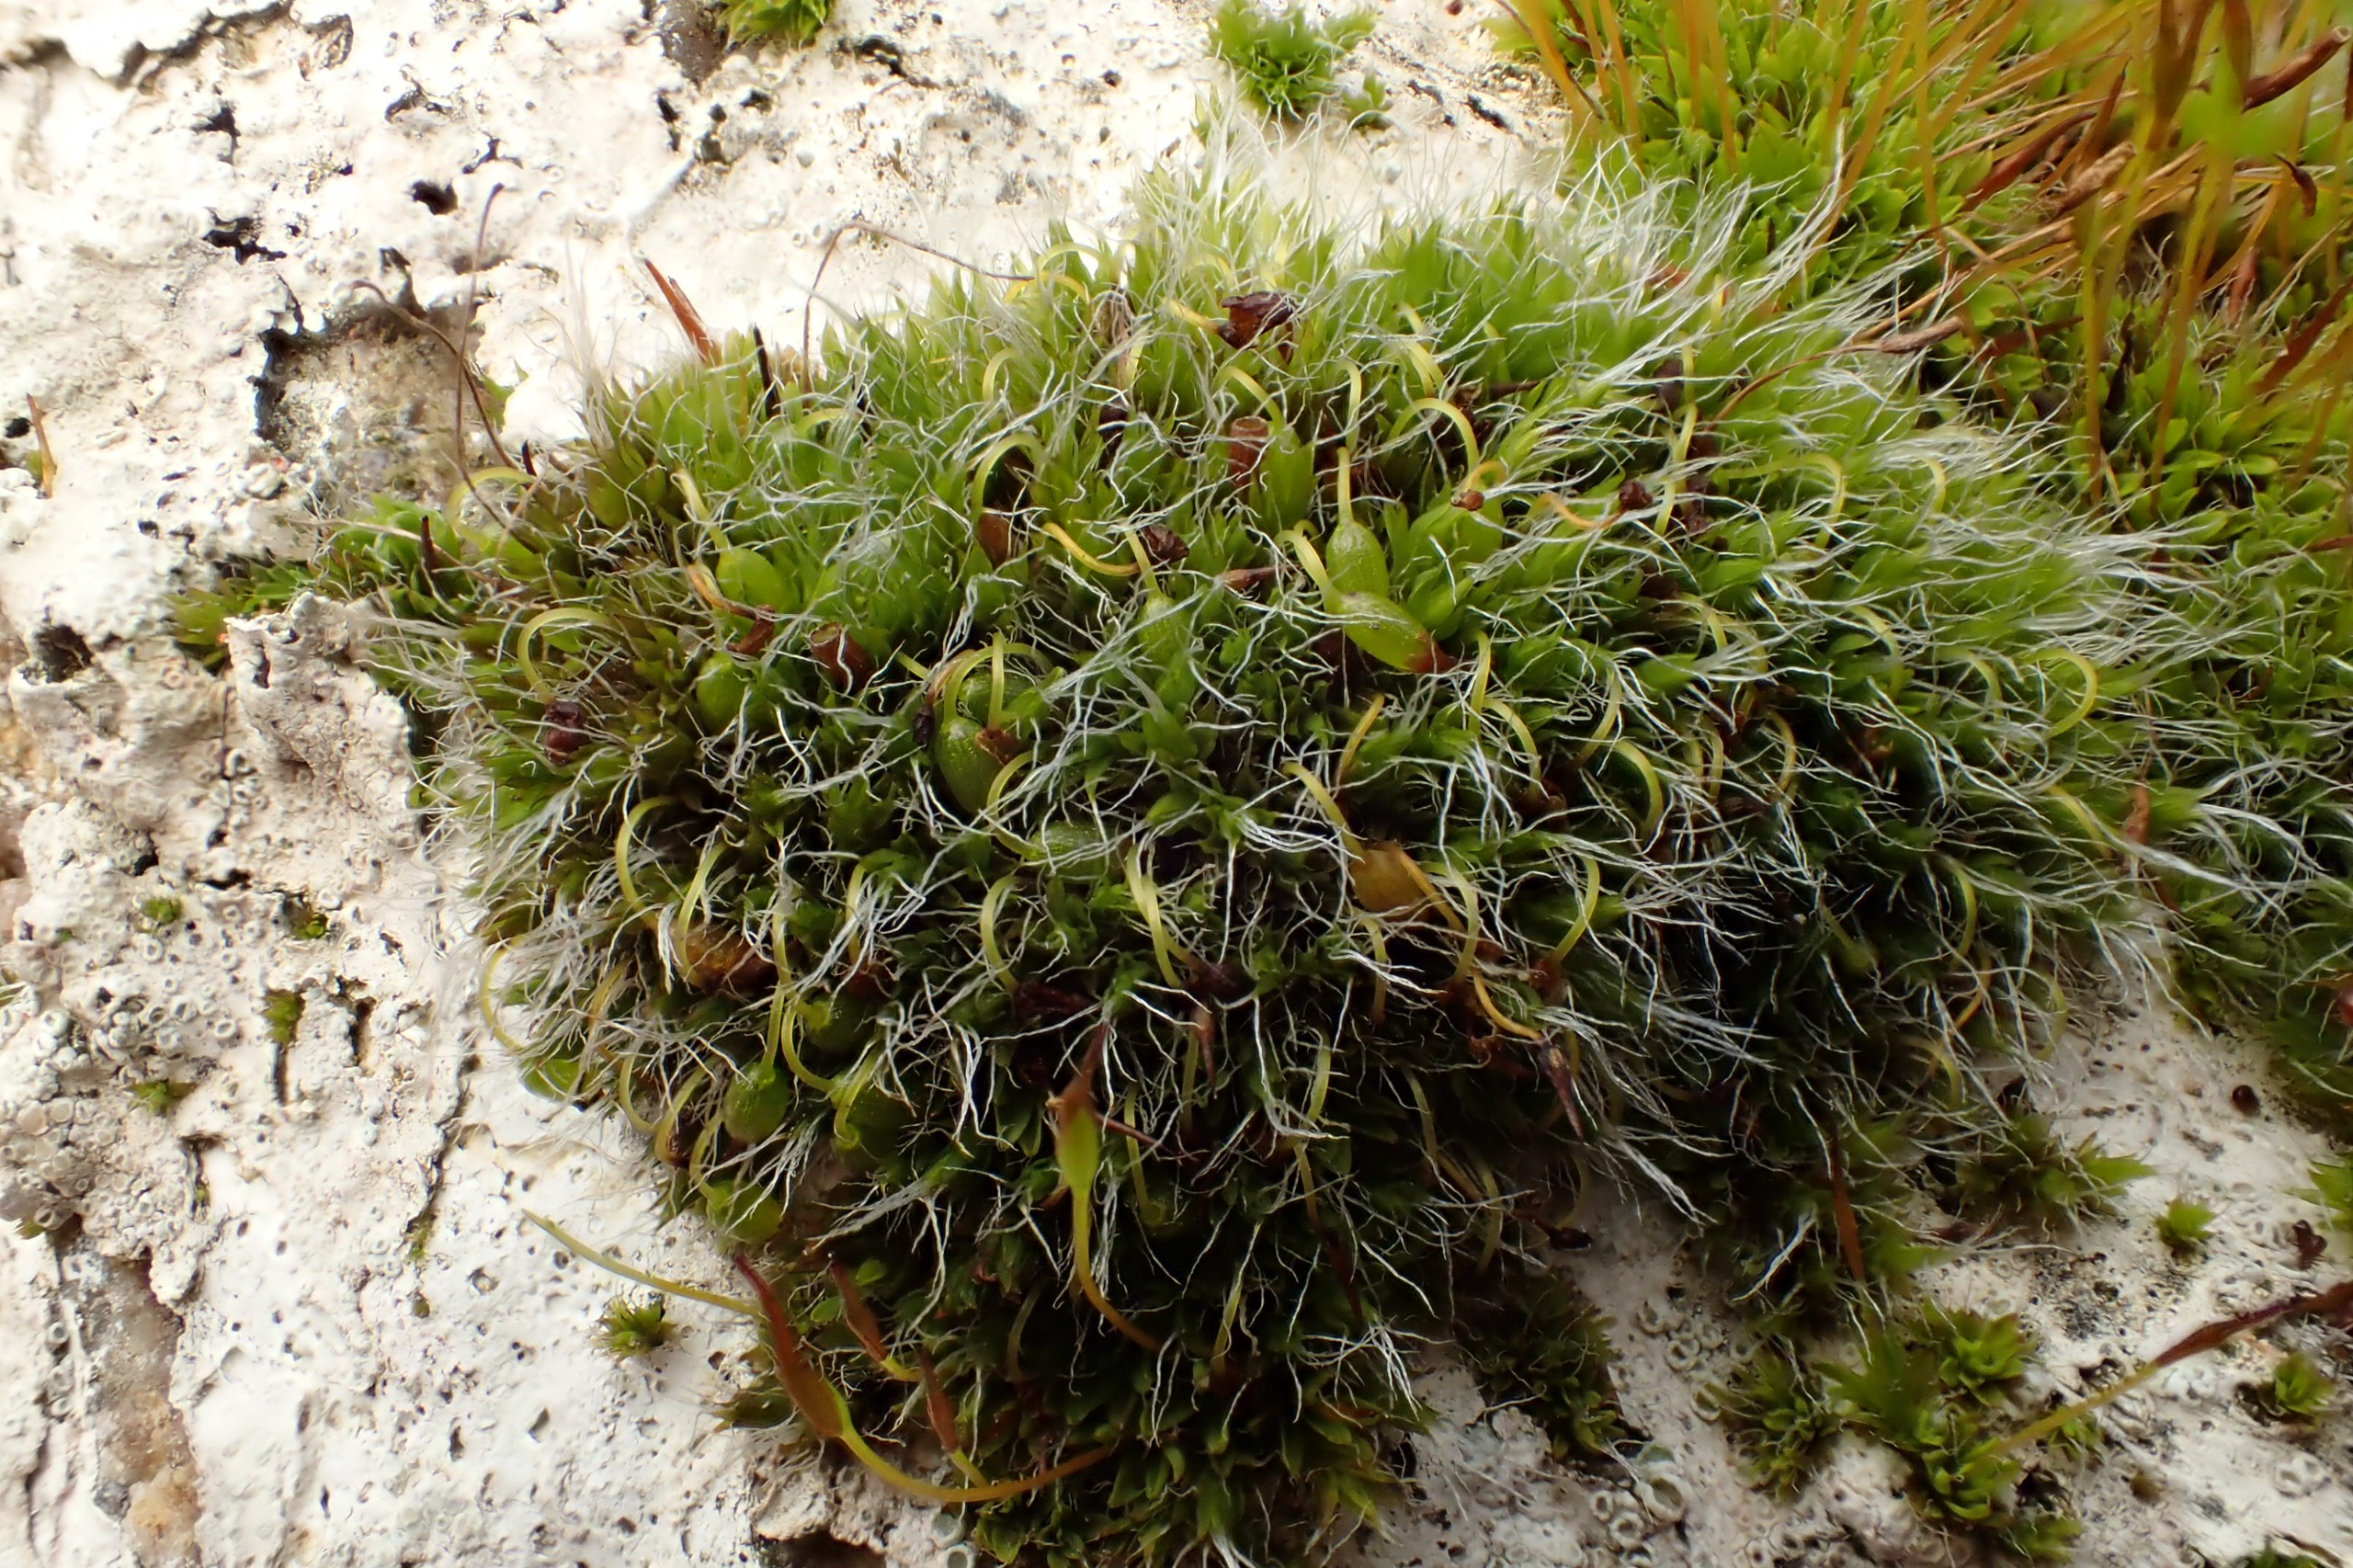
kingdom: Plantae
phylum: Bryophyta
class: Bryopsida
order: Grimmiales
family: Grimmiaceae
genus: Grimmia
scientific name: Grimmia pulvinata
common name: Pude-gråmos
